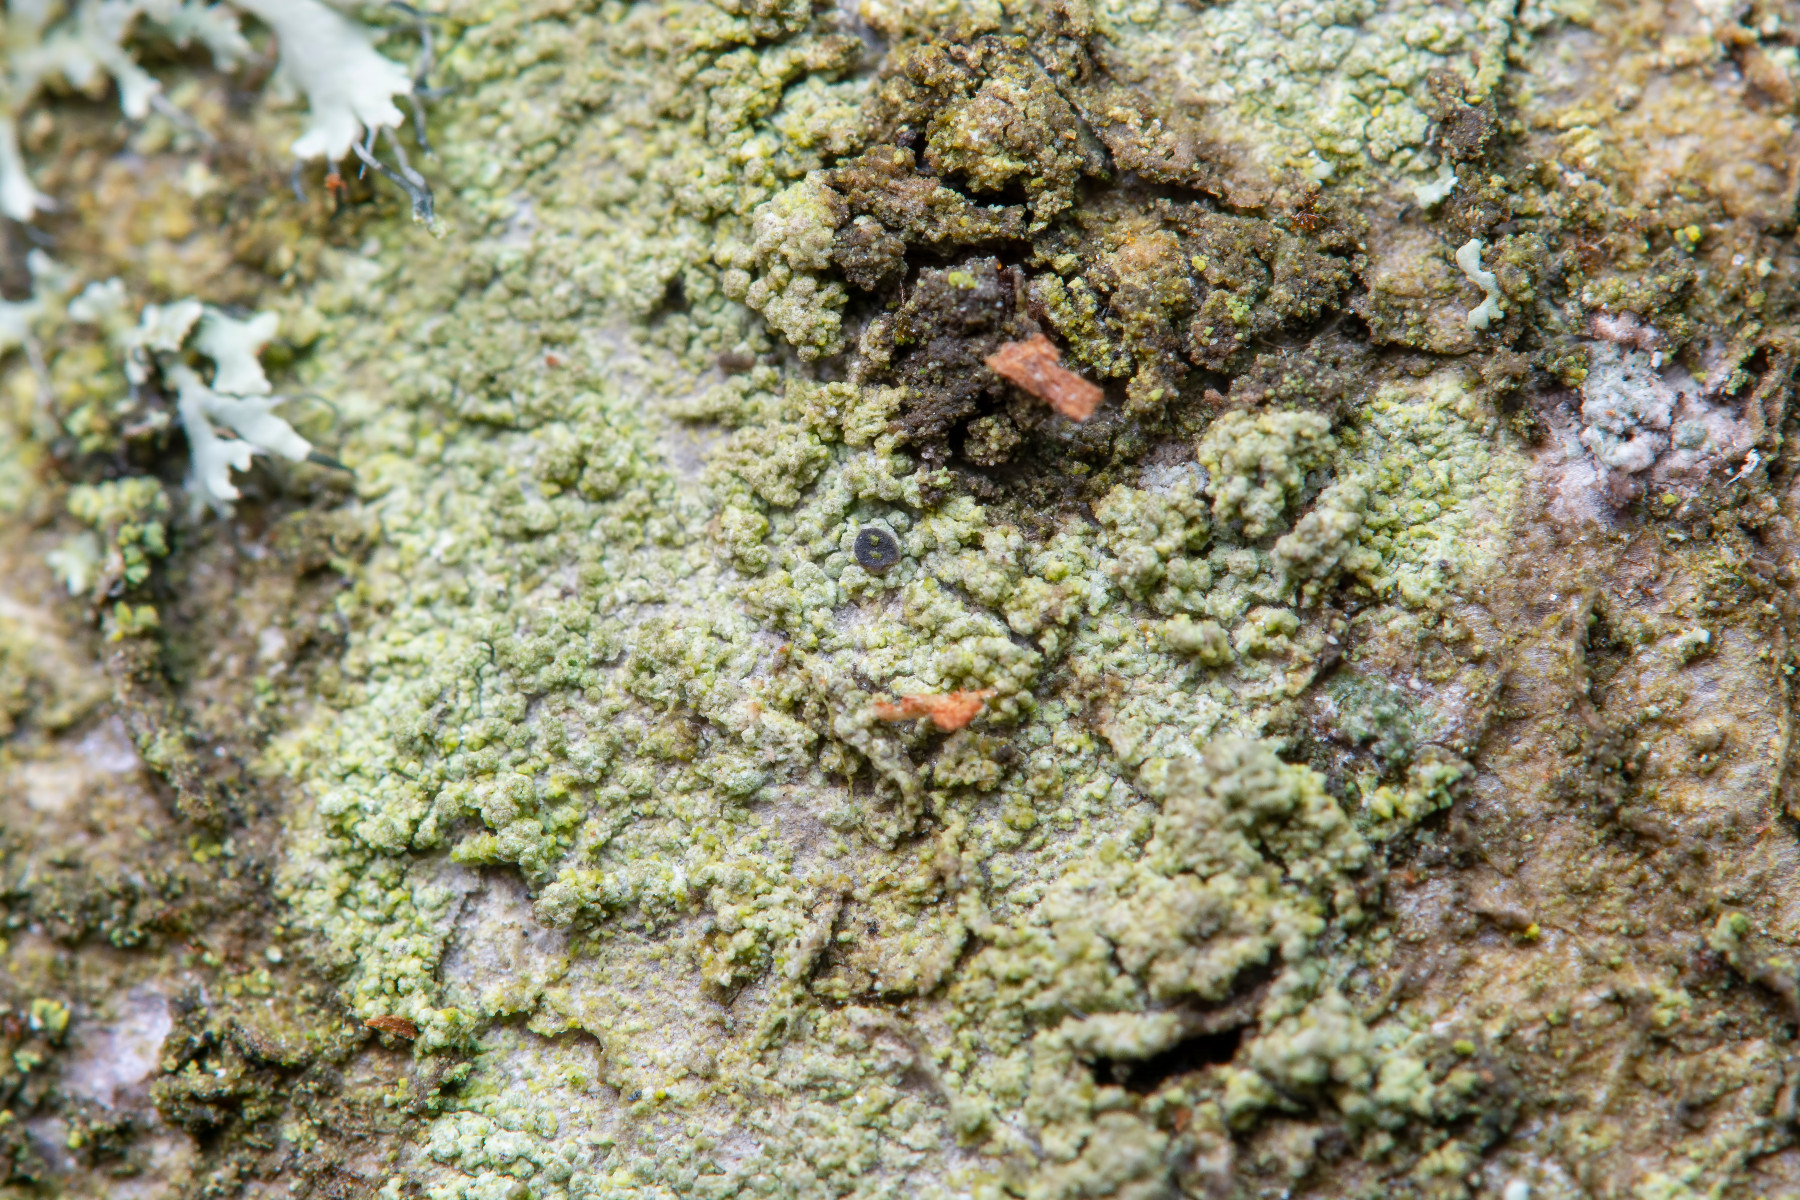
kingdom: Fungi
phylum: Ascomycota
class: Lecanoromycetes
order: Umbilicariales
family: Fuscideaceae
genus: Fuscidea
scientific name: Fuscidea lightfootii
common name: bøge-fuscidea
